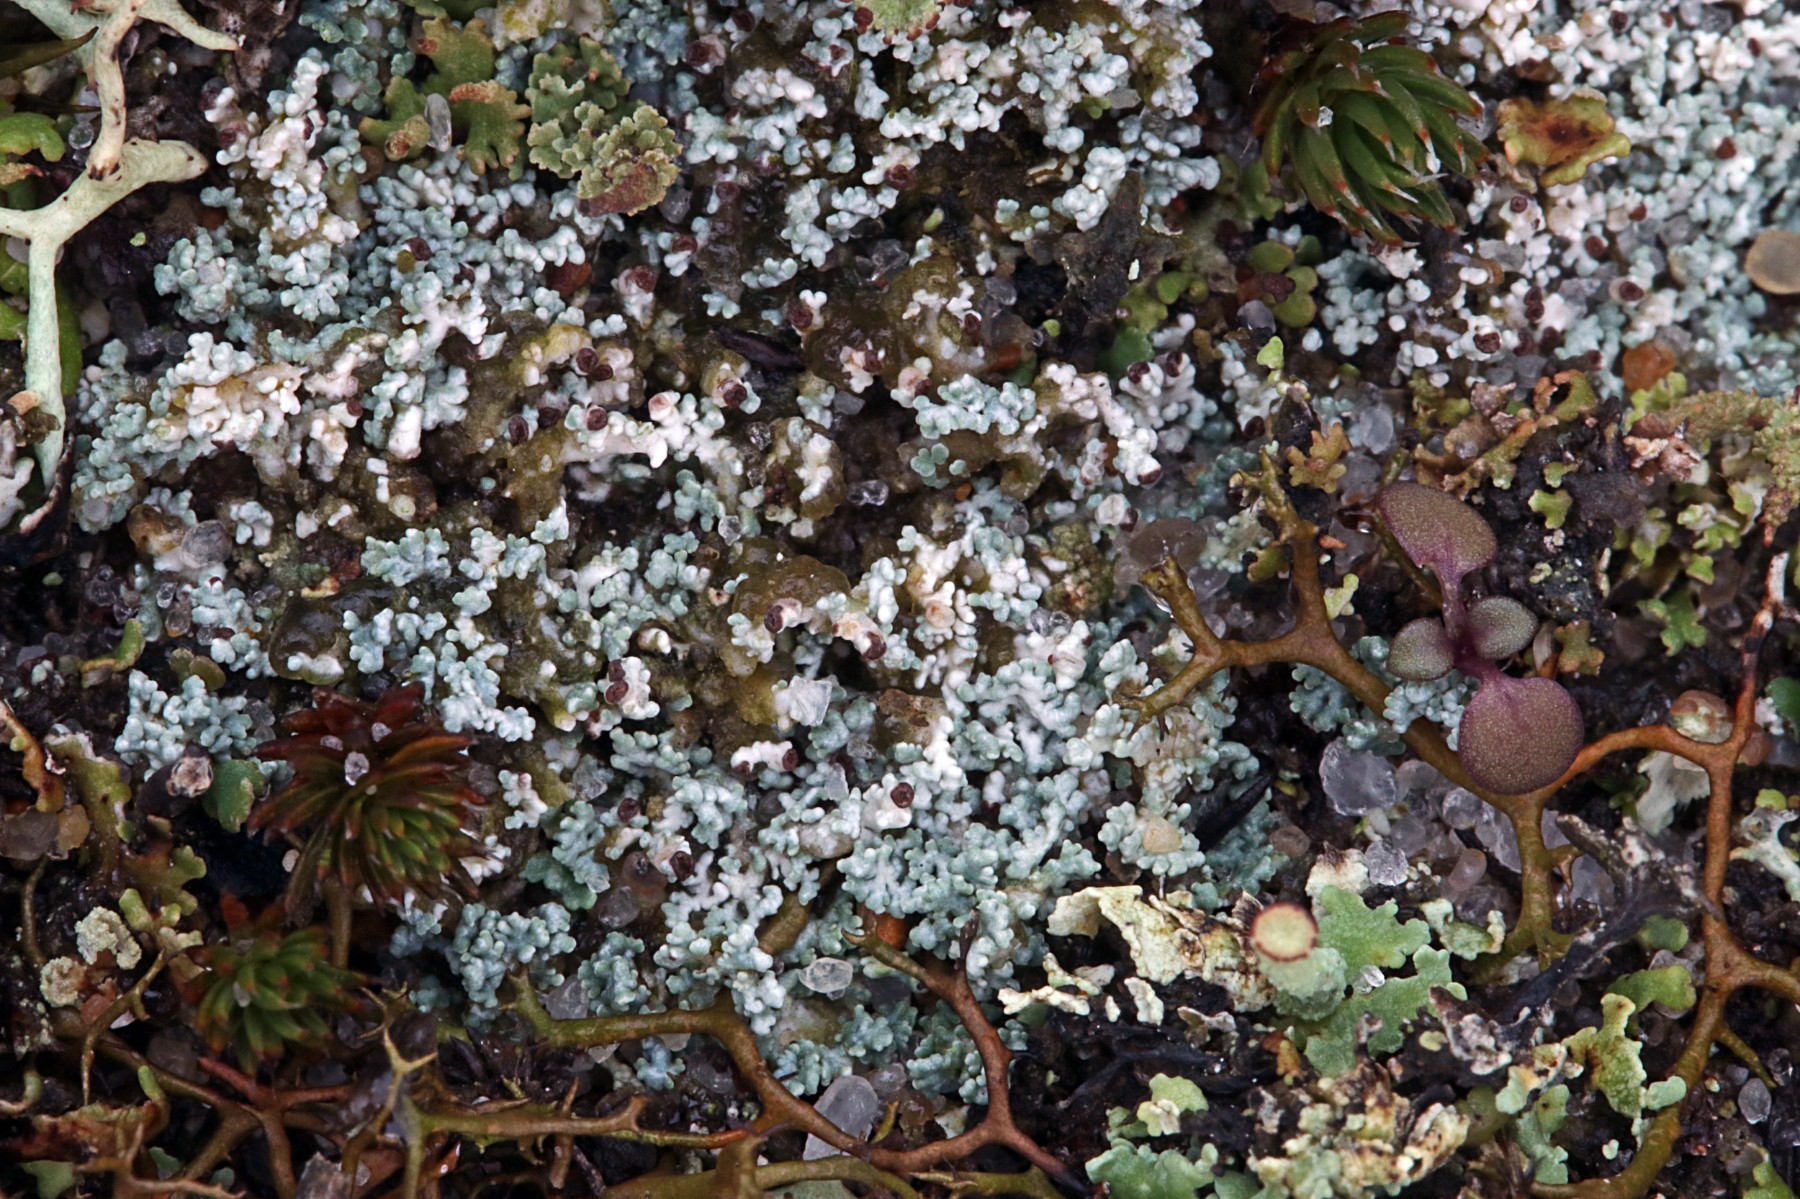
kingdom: Fungi
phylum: Ascomycota
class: Lecanoromycetes
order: Lecanorales
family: Stereocaulaceae
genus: Stereocaulon
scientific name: Stereocaulon condensatum
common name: lav korallav
